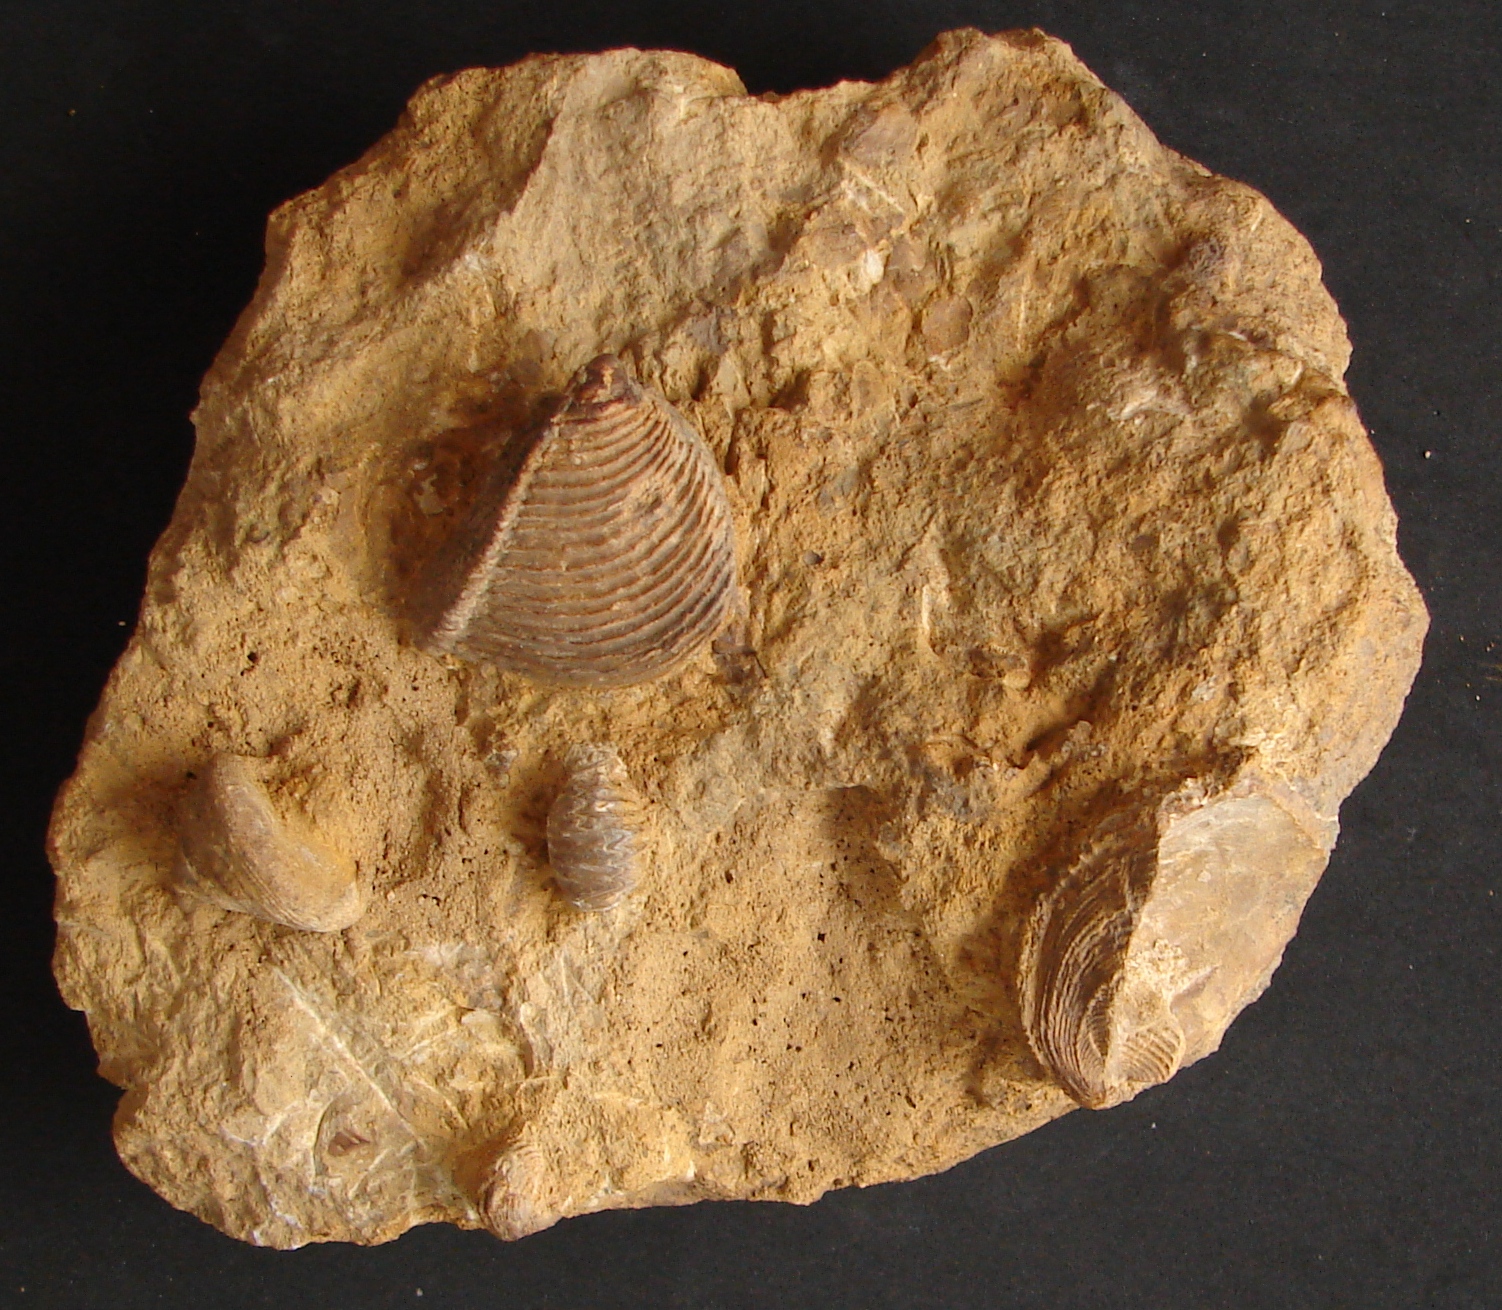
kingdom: Animalia
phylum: Mollusca
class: Gastropoda
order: Pleurotomariida
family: Pleurotomariidae
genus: Bathrotomaria
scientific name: Bathrotomaria Pleurotomaria subreticulata
